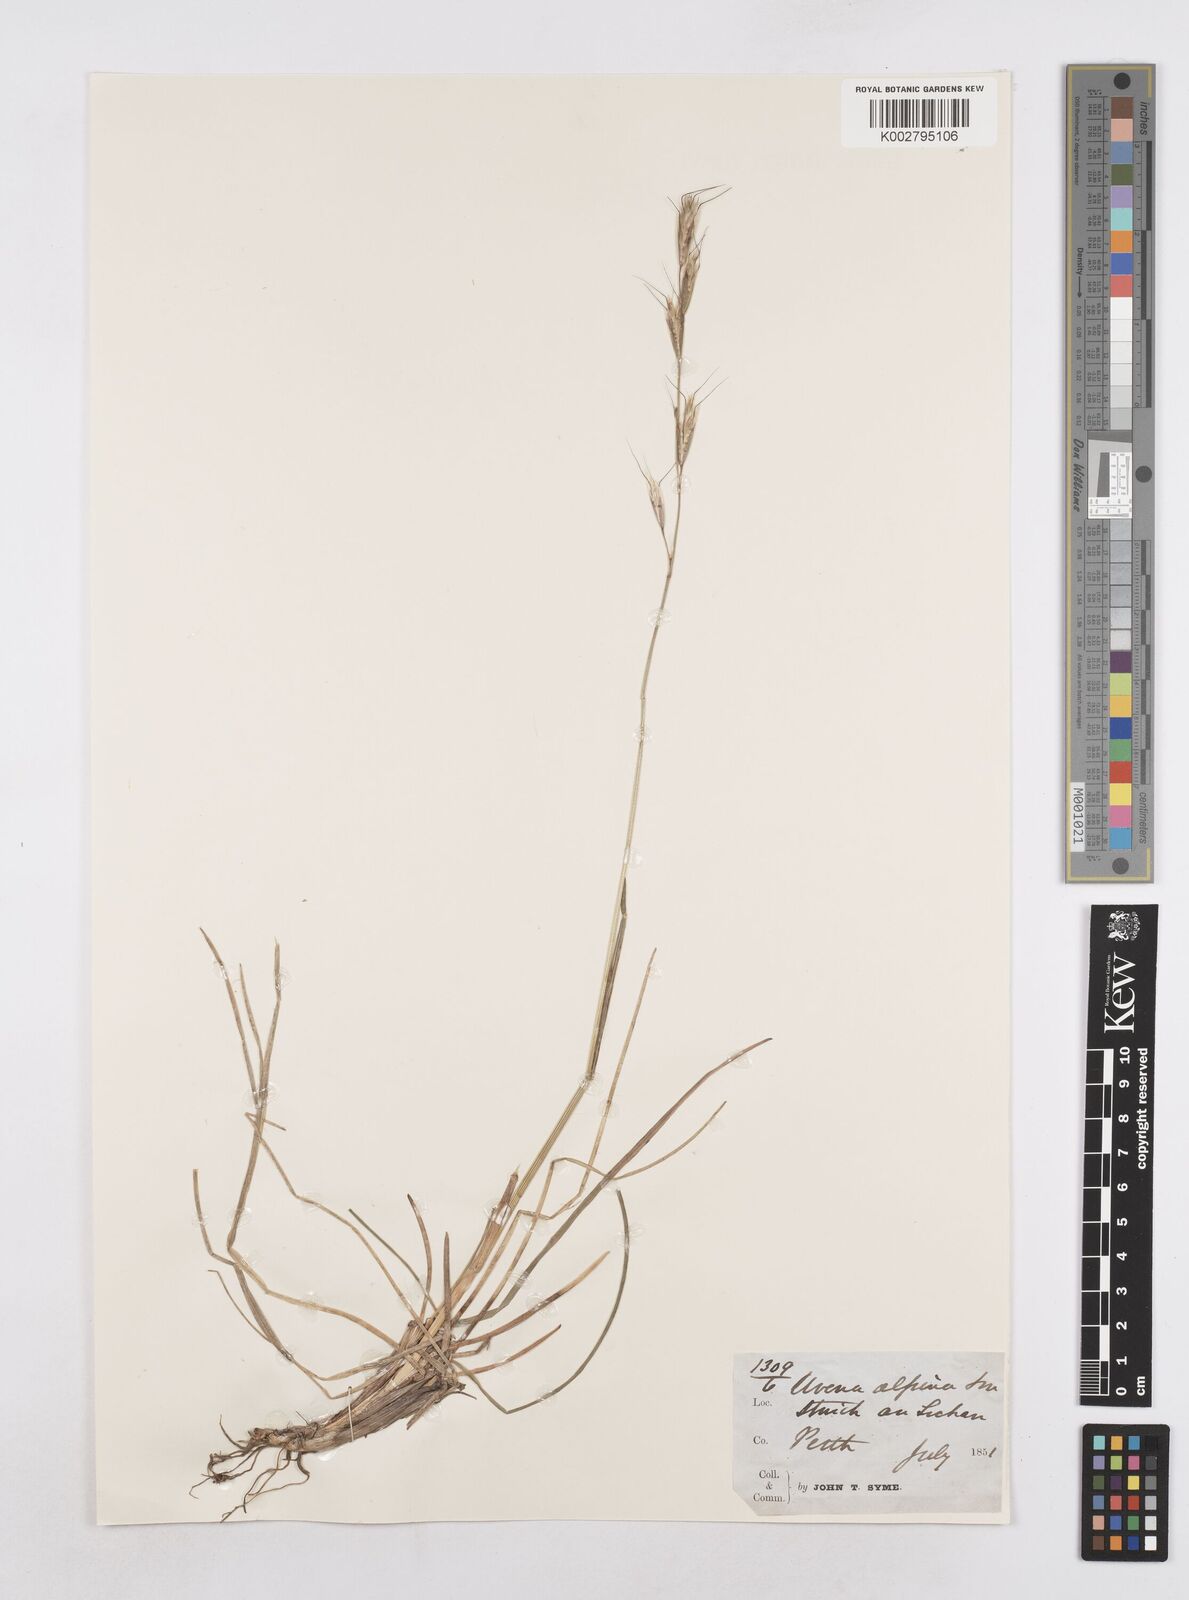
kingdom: Plantae
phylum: Tracheophyta
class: Liliopsida
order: Poales
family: Poaceae
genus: Helictochloa
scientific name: Helictochloa pratensis
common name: Meadow oat grass
